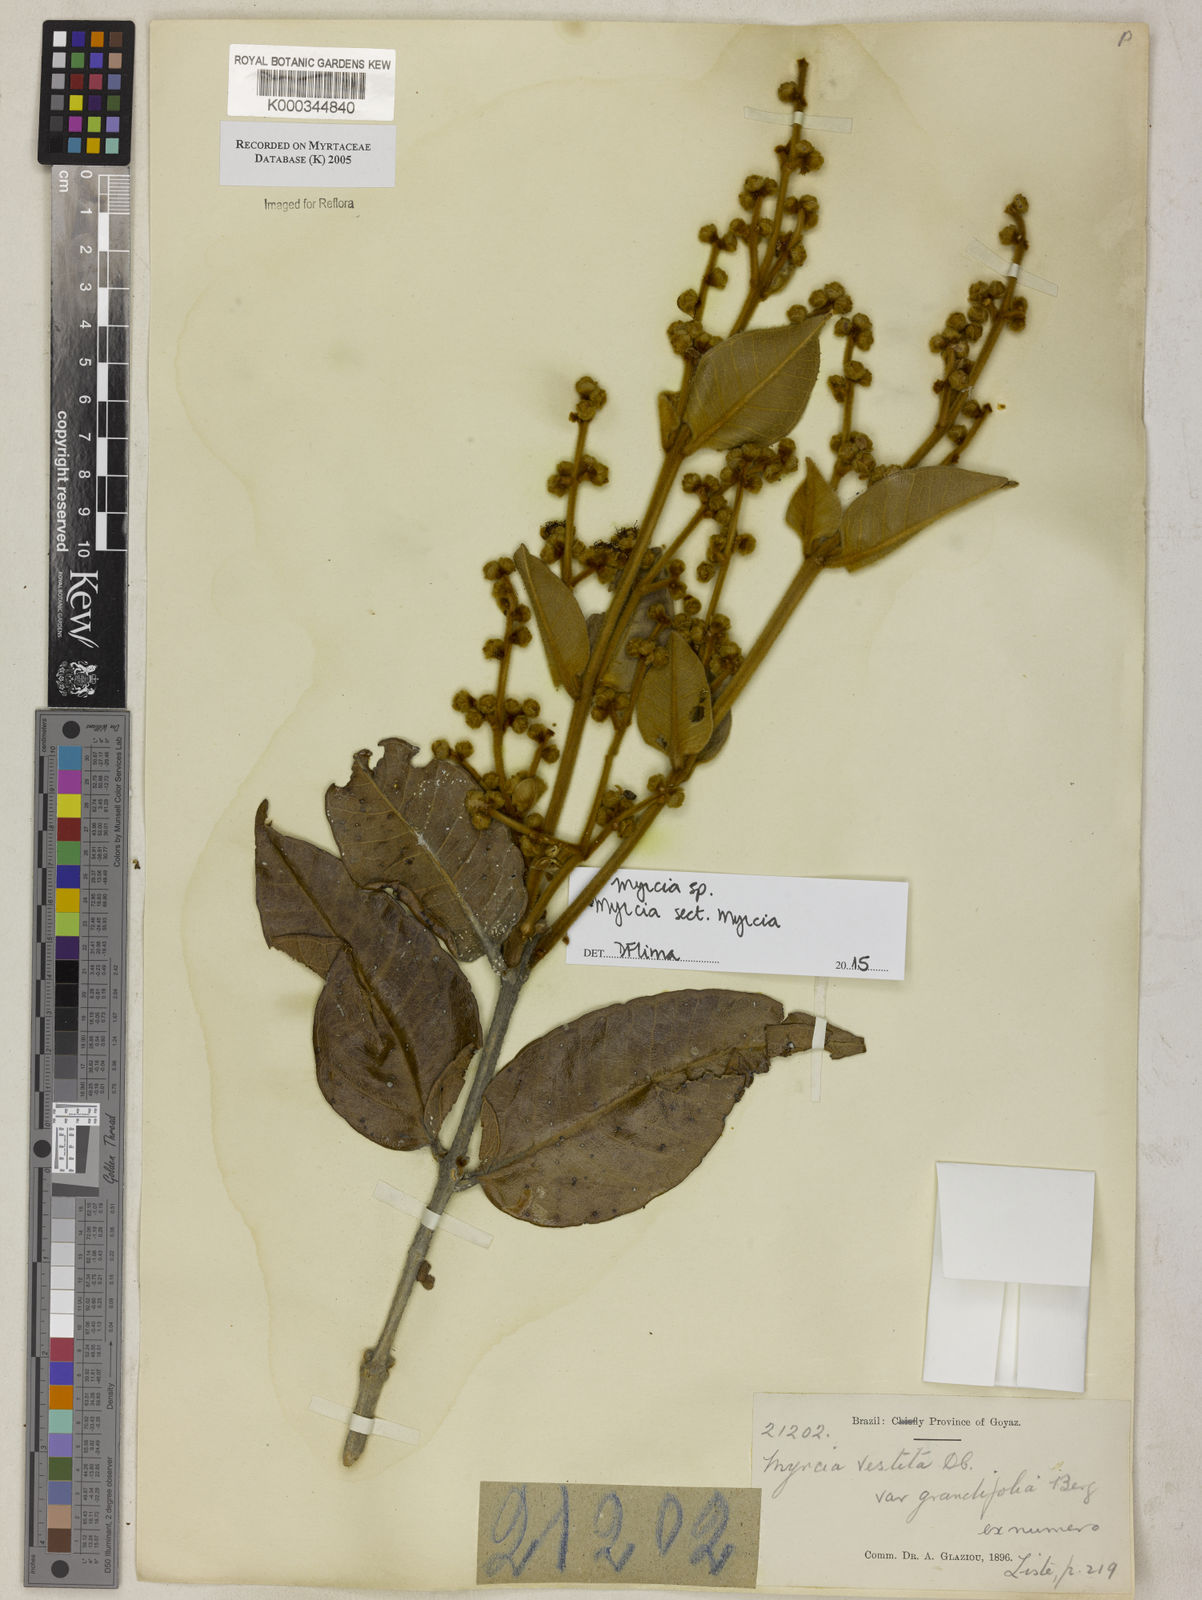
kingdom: Plantae
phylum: Tracheophyta
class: Magnoliopsida
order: Myrtales
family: Myrtaceae
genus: Myrcia
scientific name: Myrcia vestita
